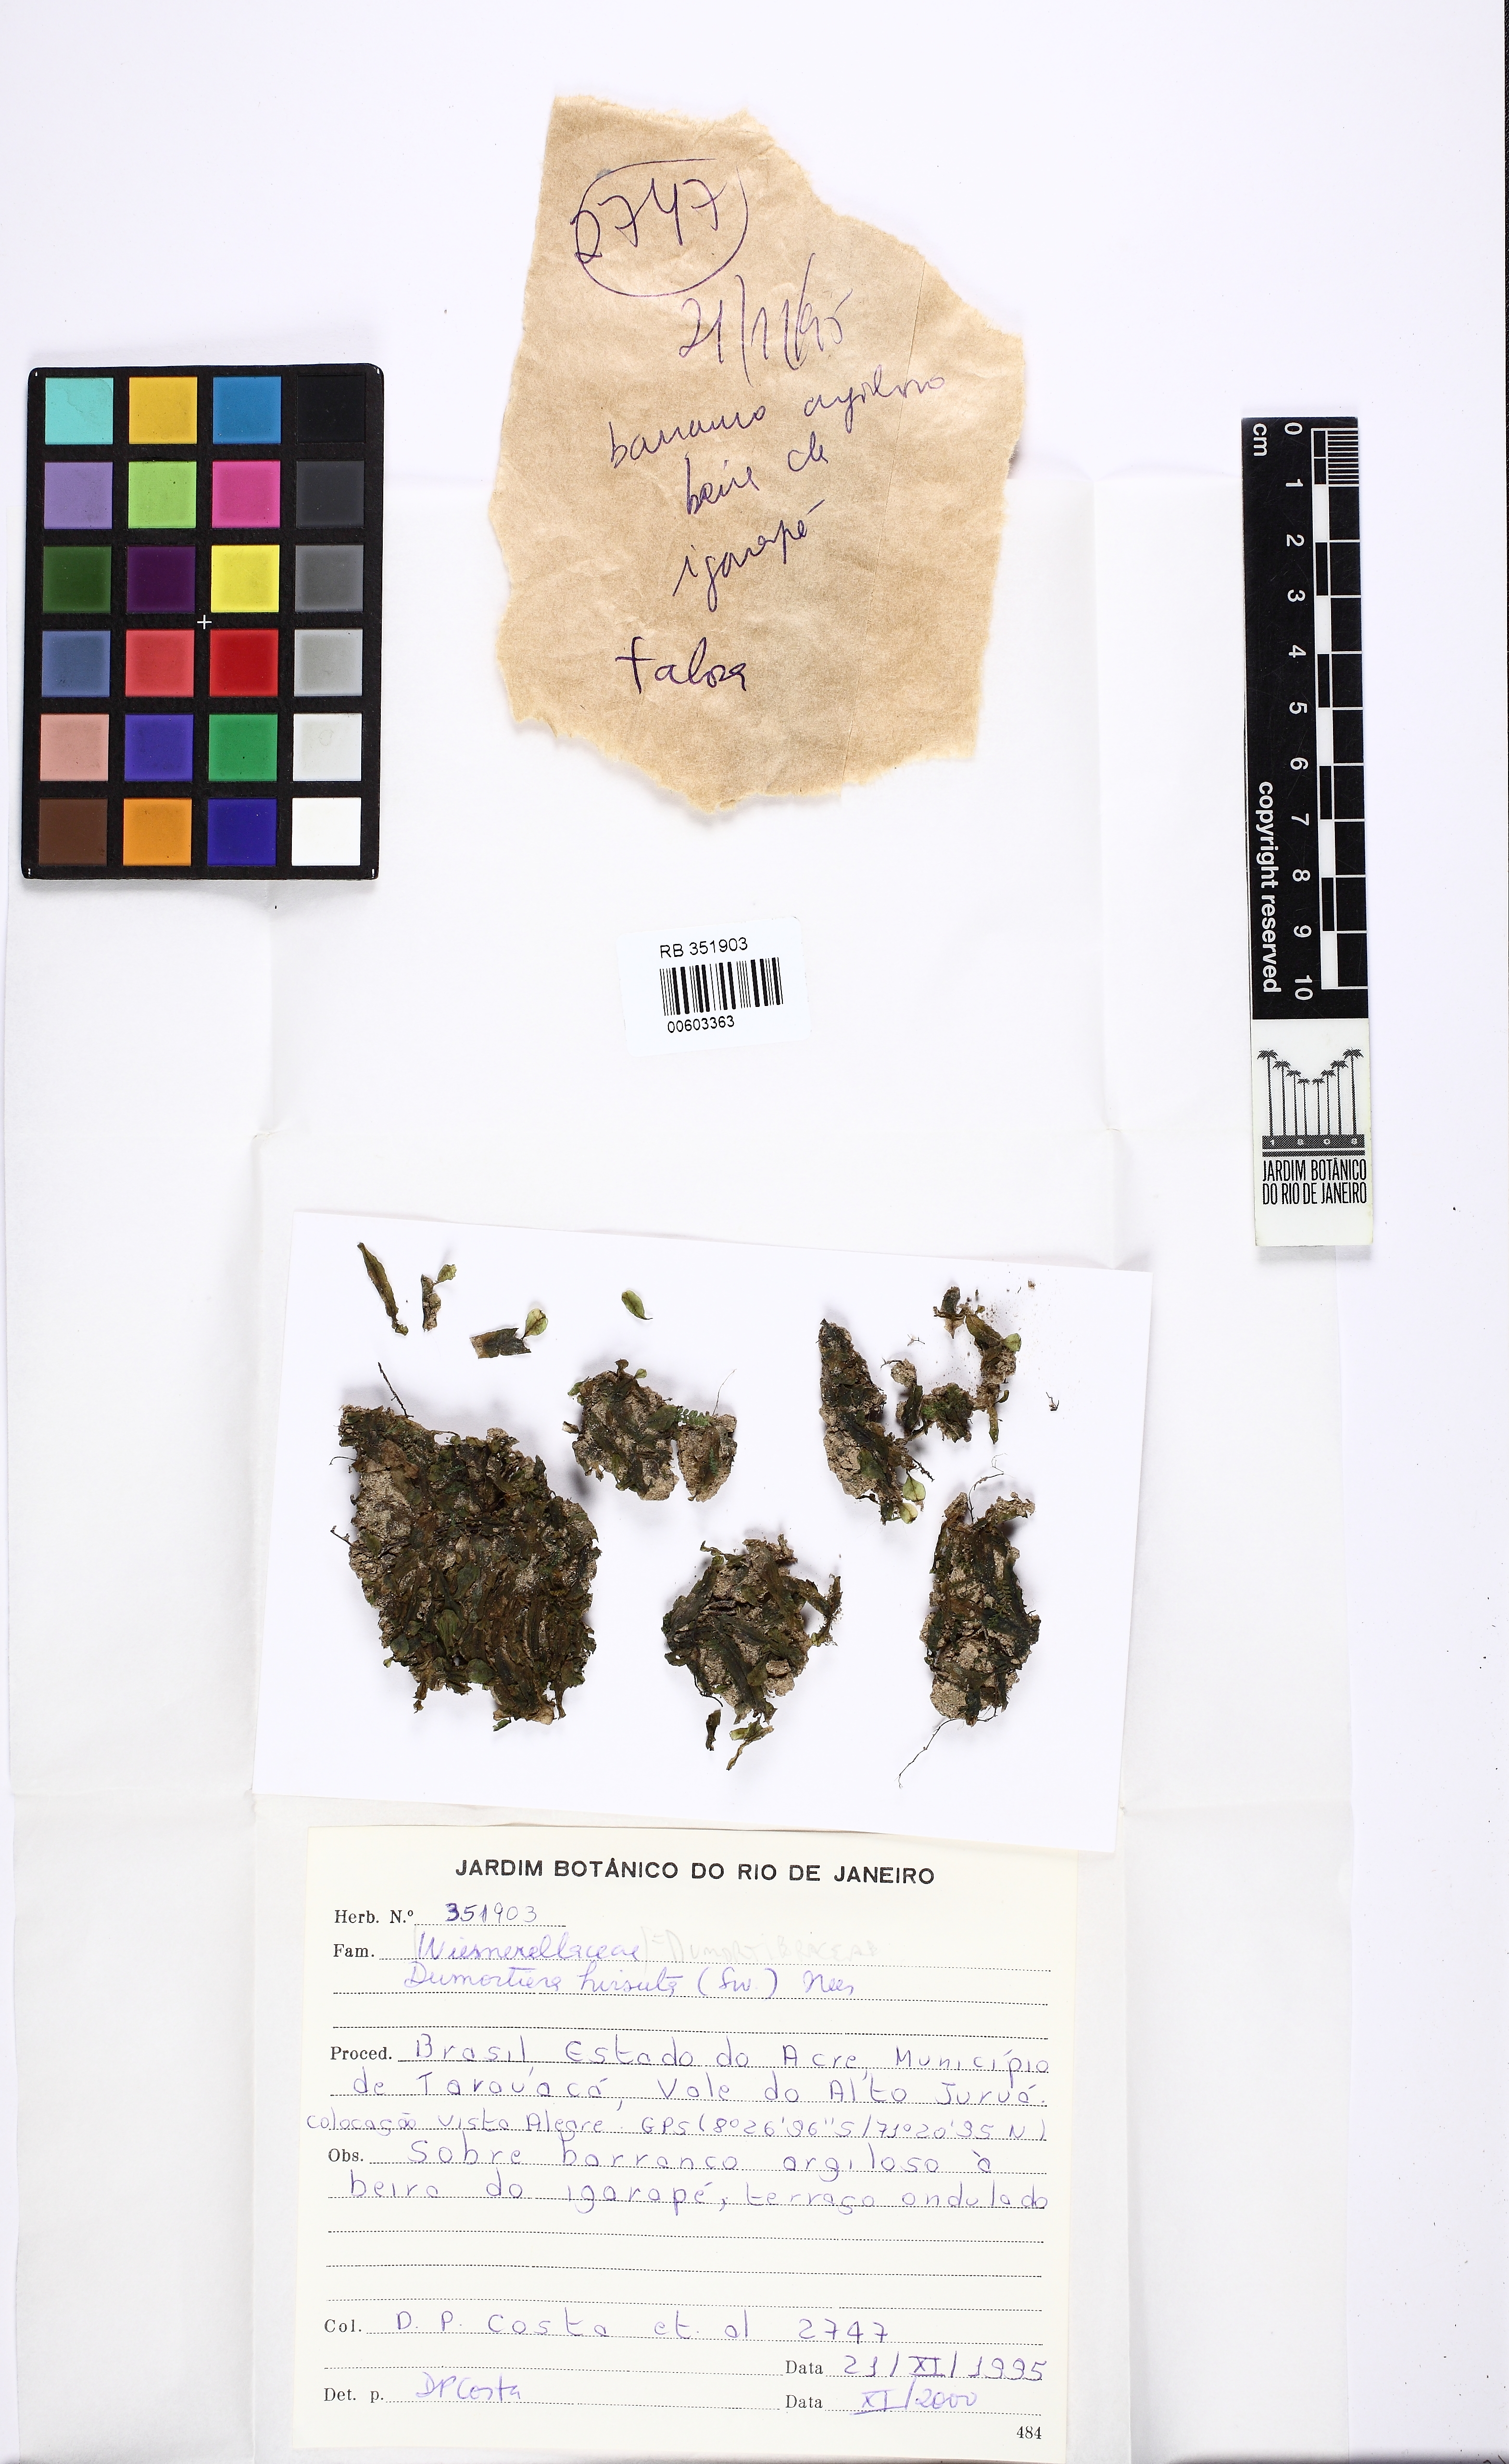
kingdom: Plantae
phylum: Marchantiophyta
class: Marchantiopsida
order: Marchantiales
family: Dumortieraceae
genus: Dumortiera
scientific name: Dumortiera hirsuta
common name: Dumortier's liverwort
